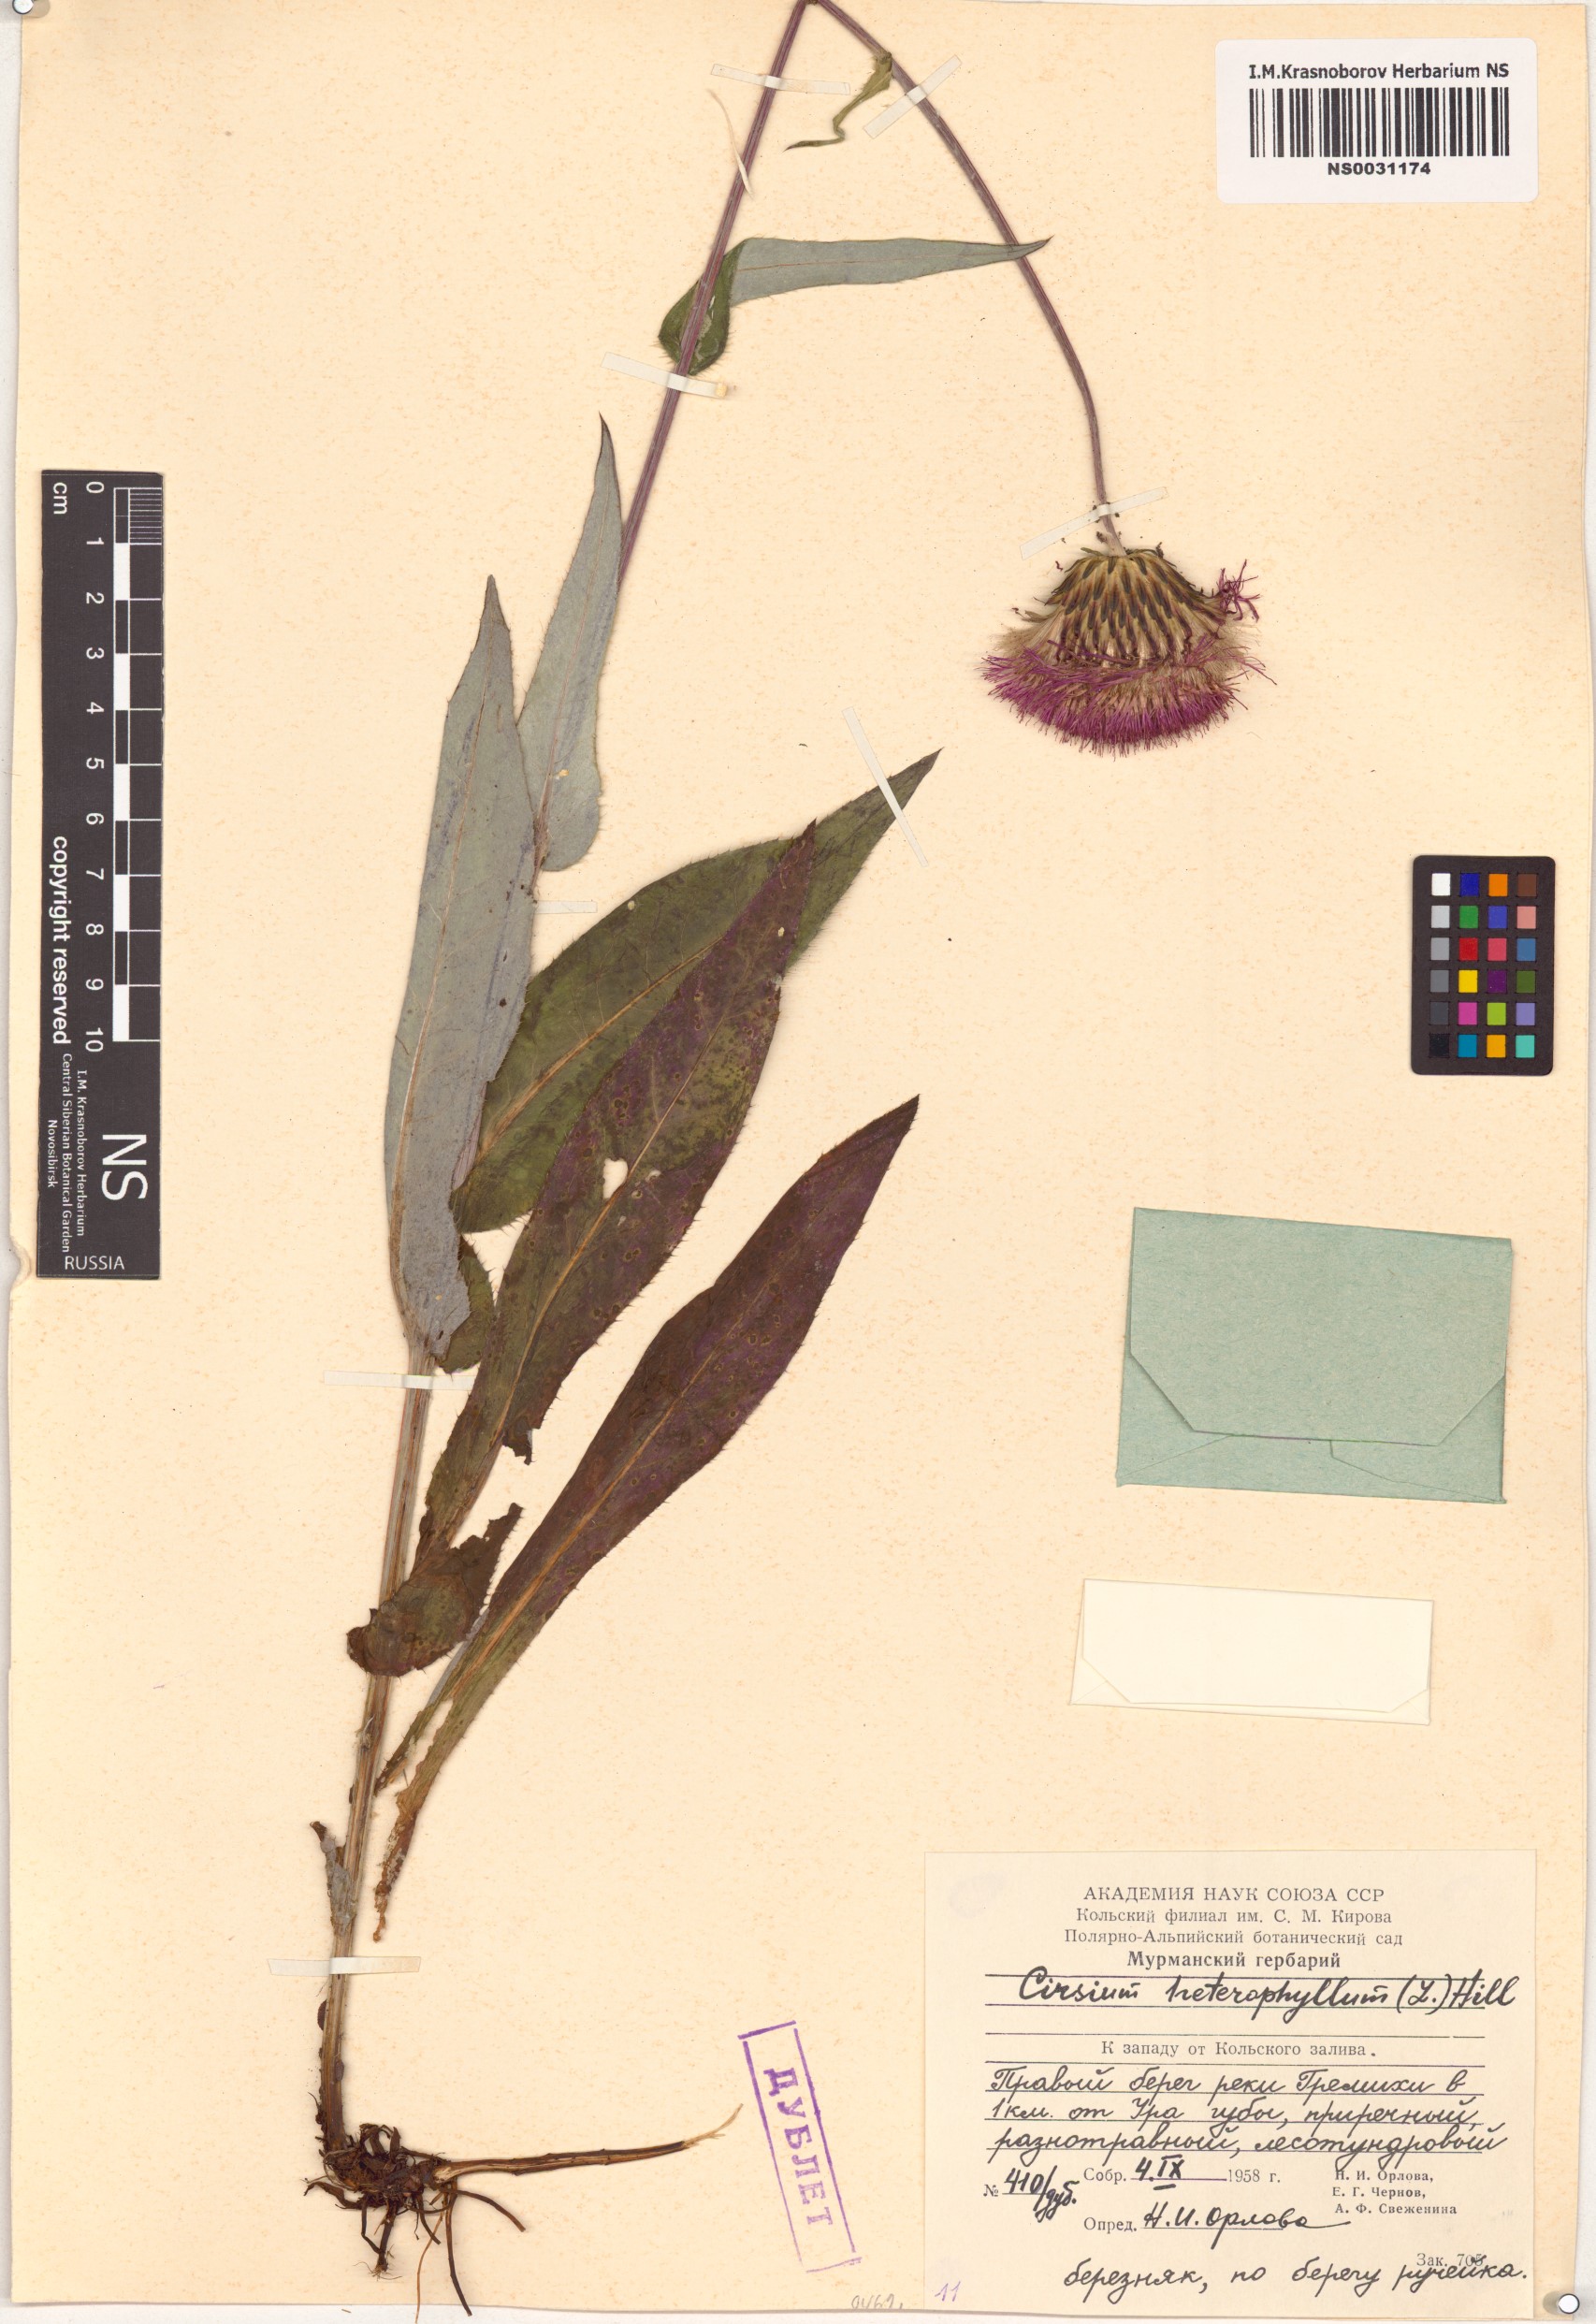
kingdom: Plantae
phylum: Tracheophyta
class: Magnoliopsida
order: Asterales
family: Asteraceae
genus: Cirsium
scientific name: Cirsium heterophyllum
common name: Melancholy thistle
